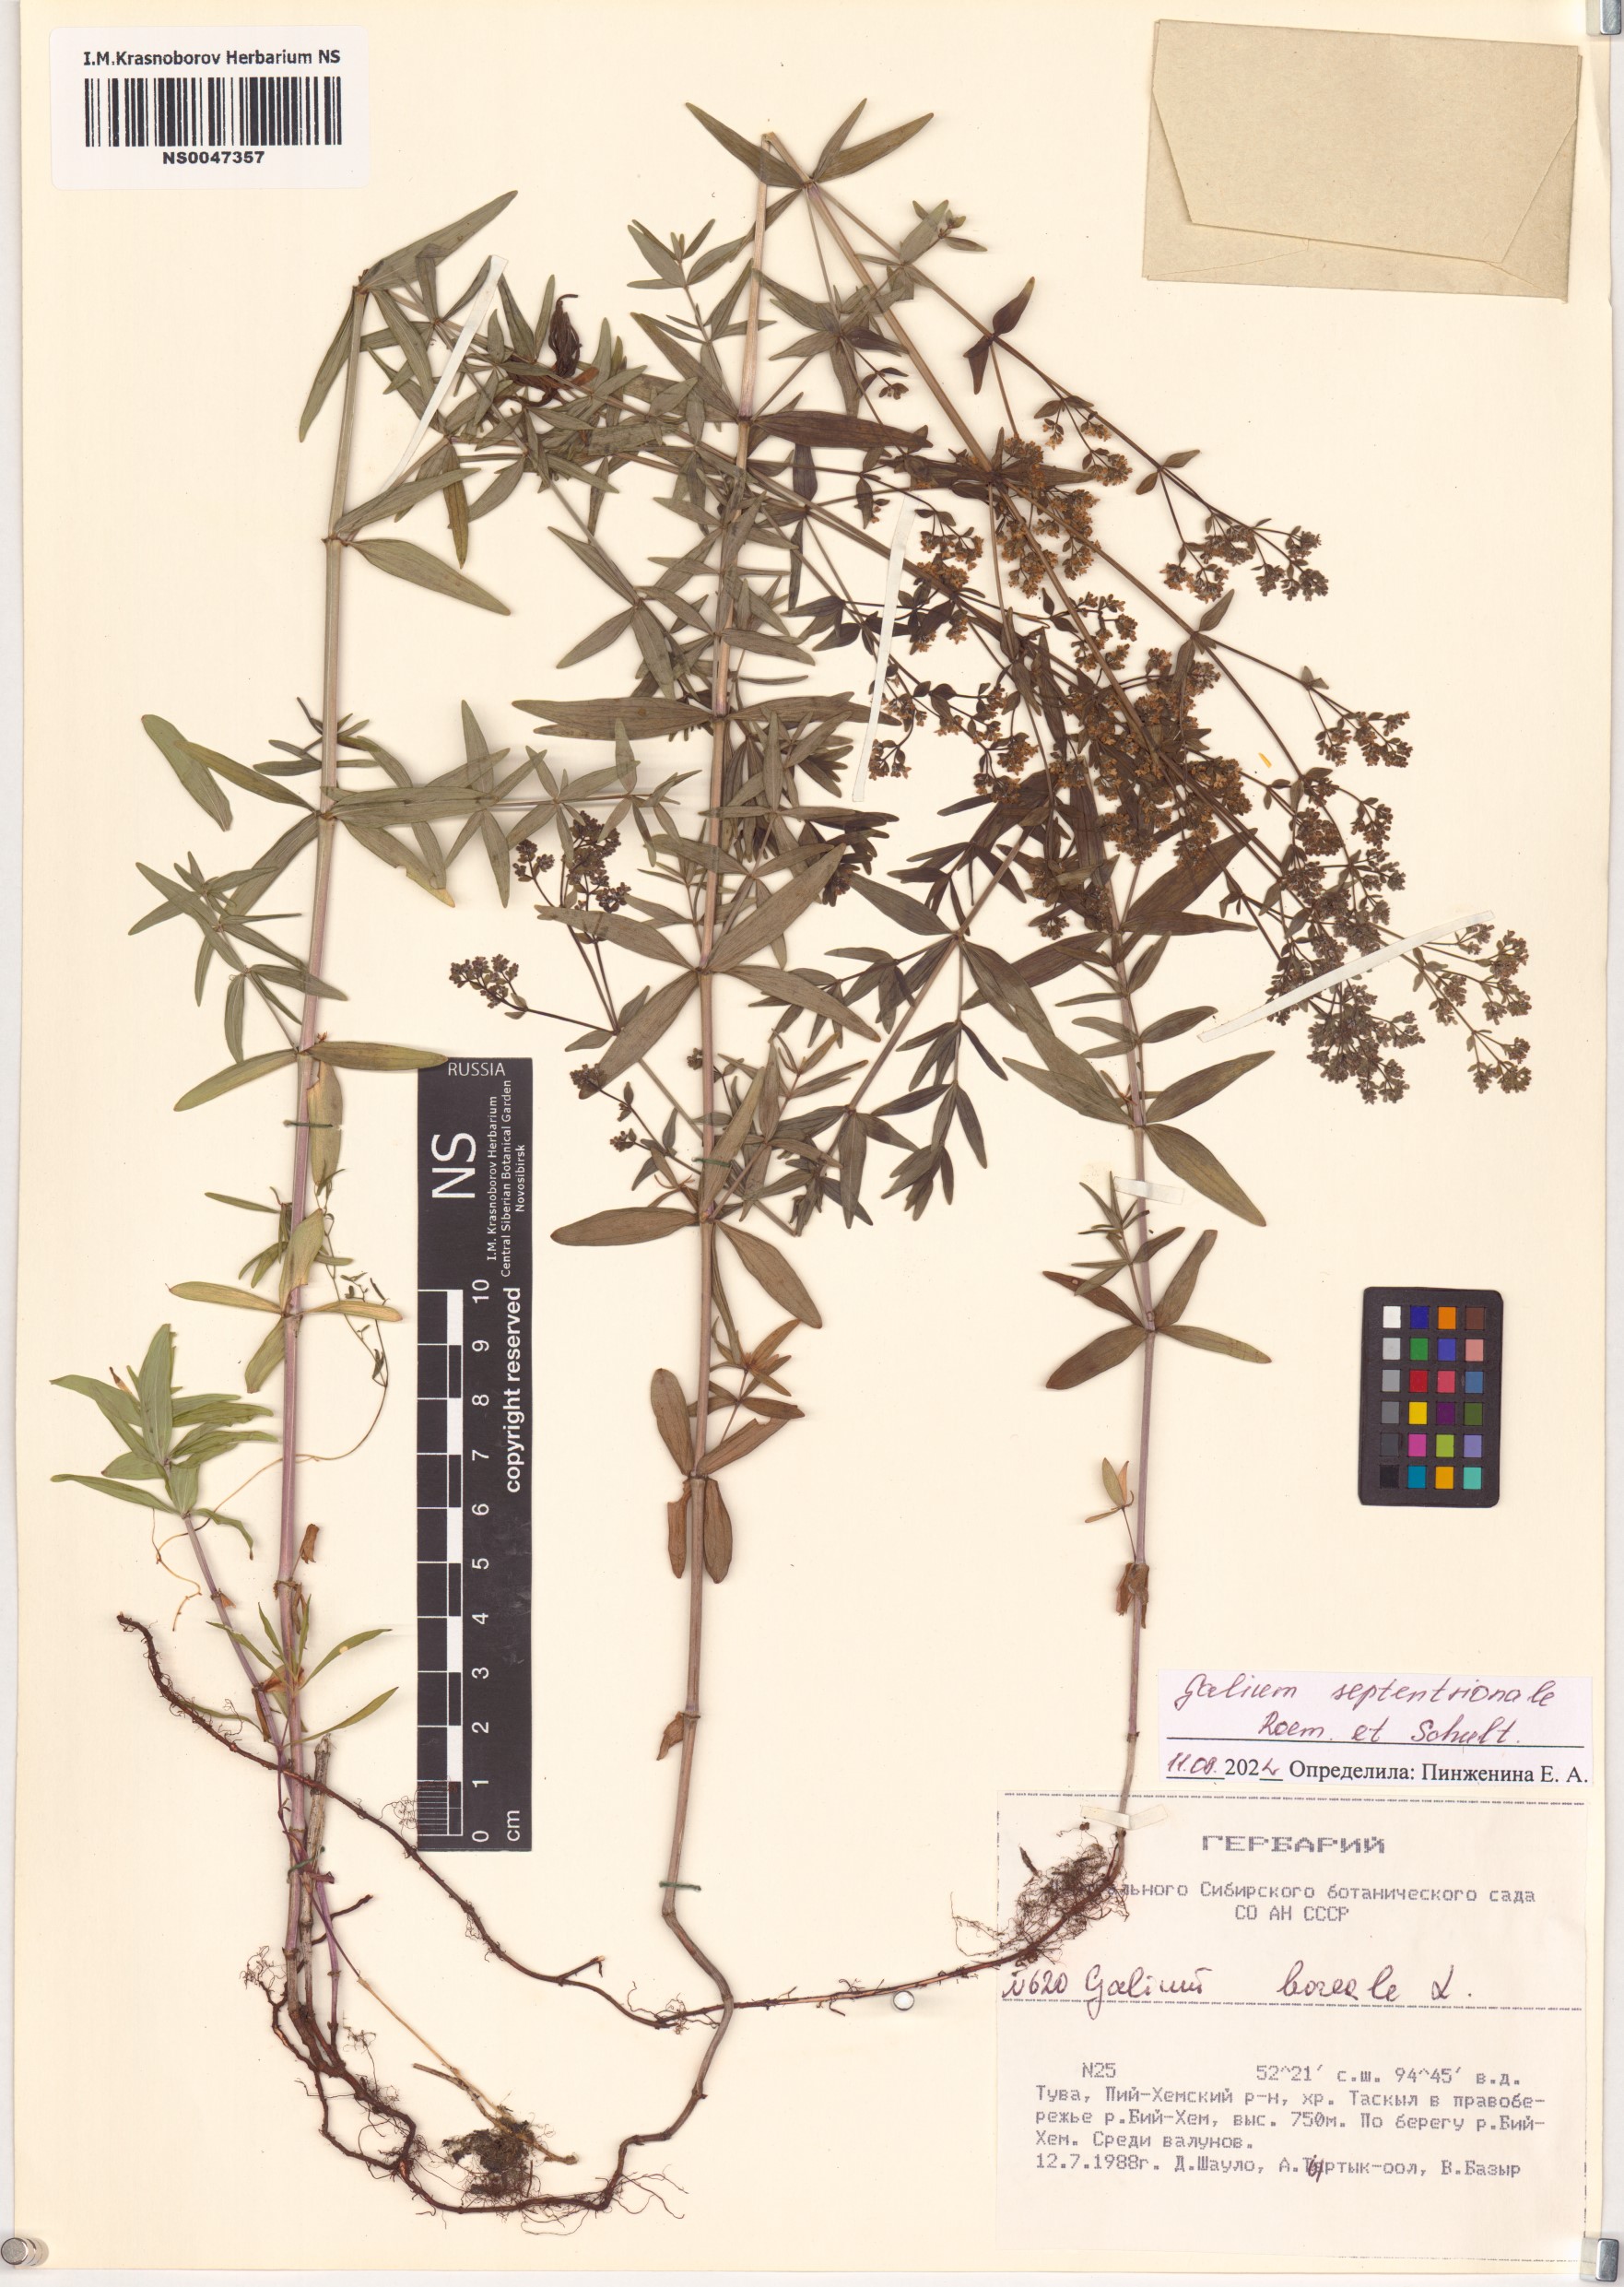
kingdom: Plantae
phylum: Tracheophyta
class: Magnoliopsida
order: Gentianales
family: Rubiaceae
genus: Galium
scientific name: Galium boreale
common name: Northern bedstraw
